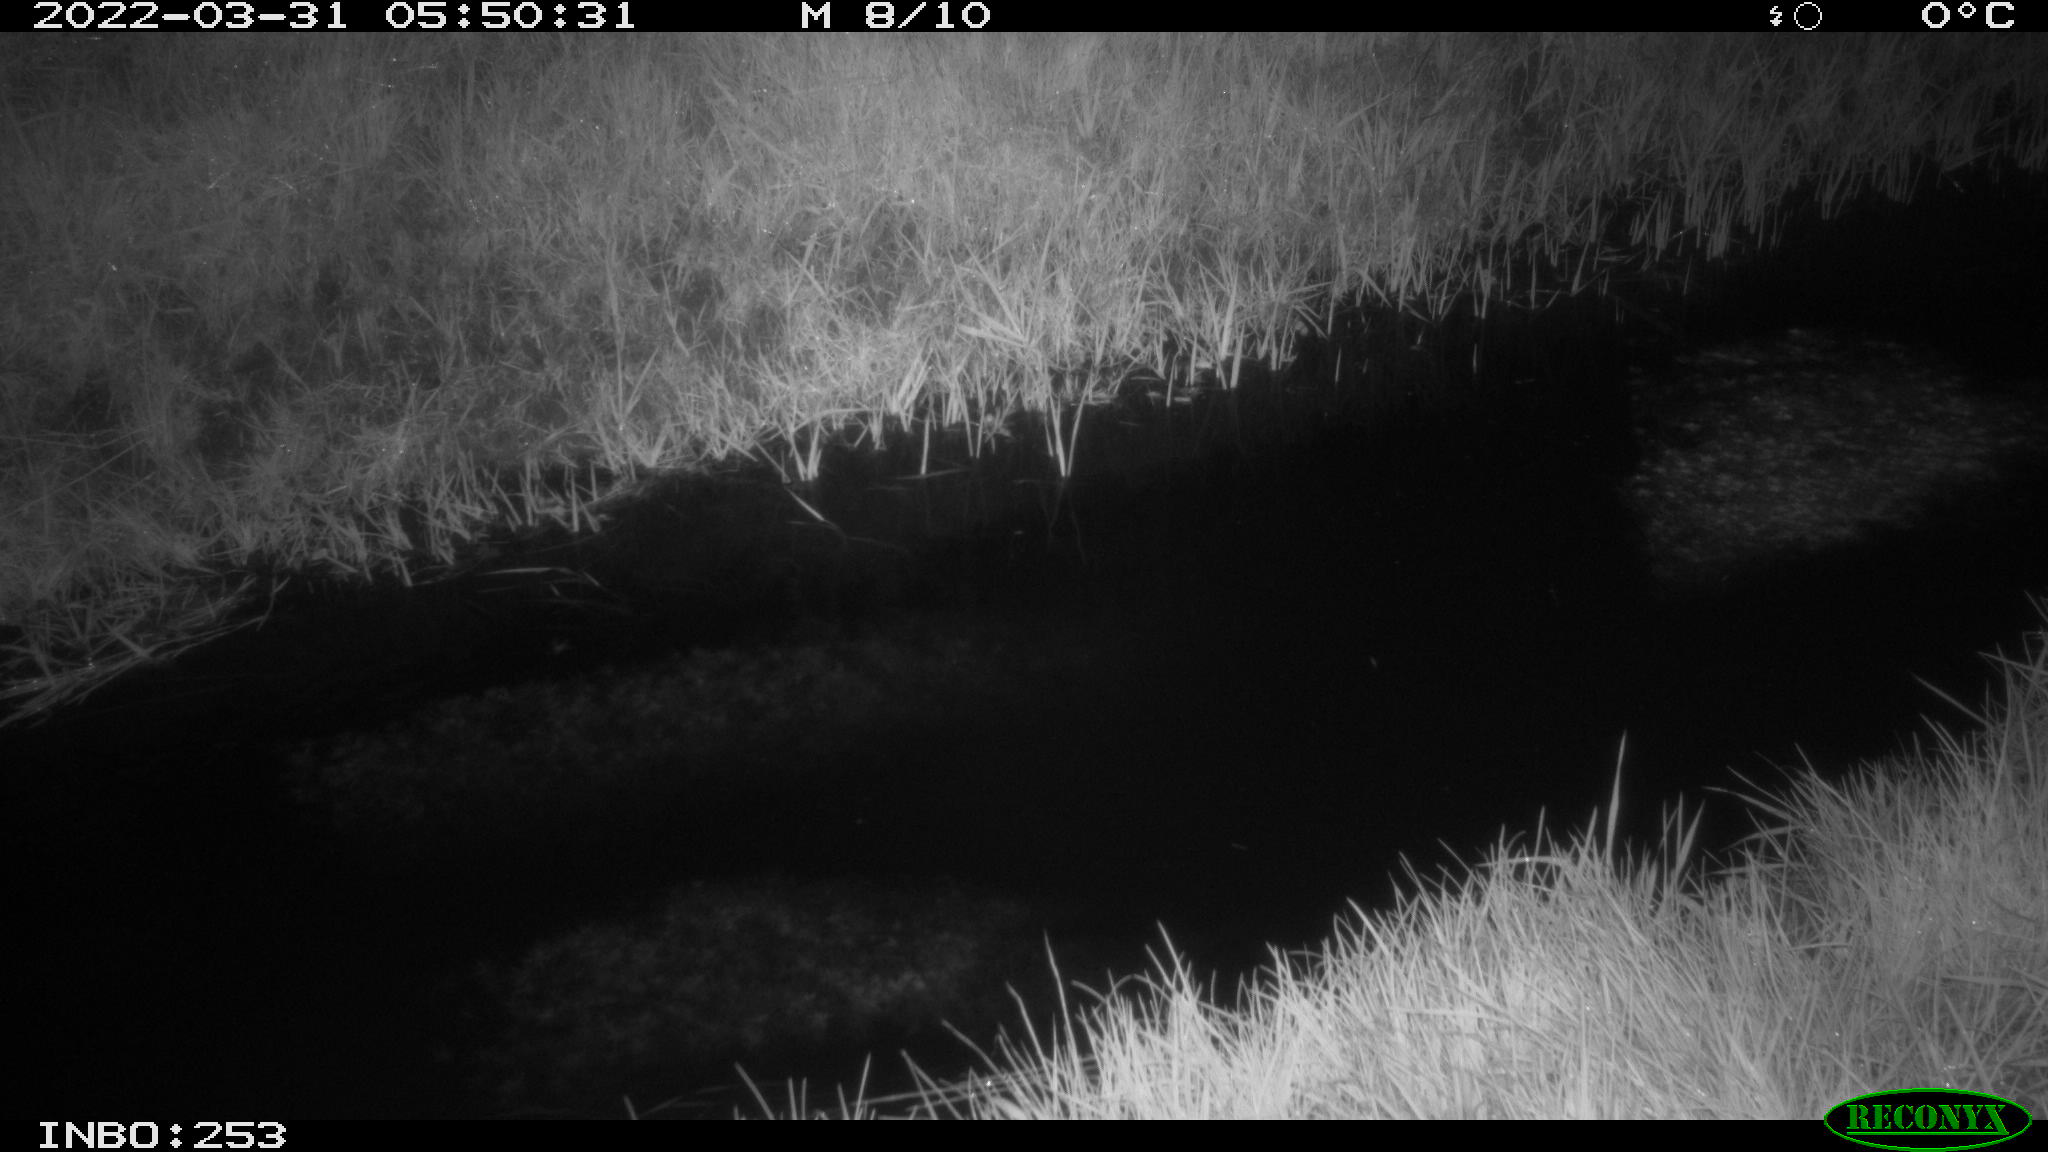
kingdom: Animalia
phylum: Chordata
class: Aves
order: Anseriformes
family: Anatidae
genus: Anas
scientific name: Anas platyrhynchos
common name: Mallard
